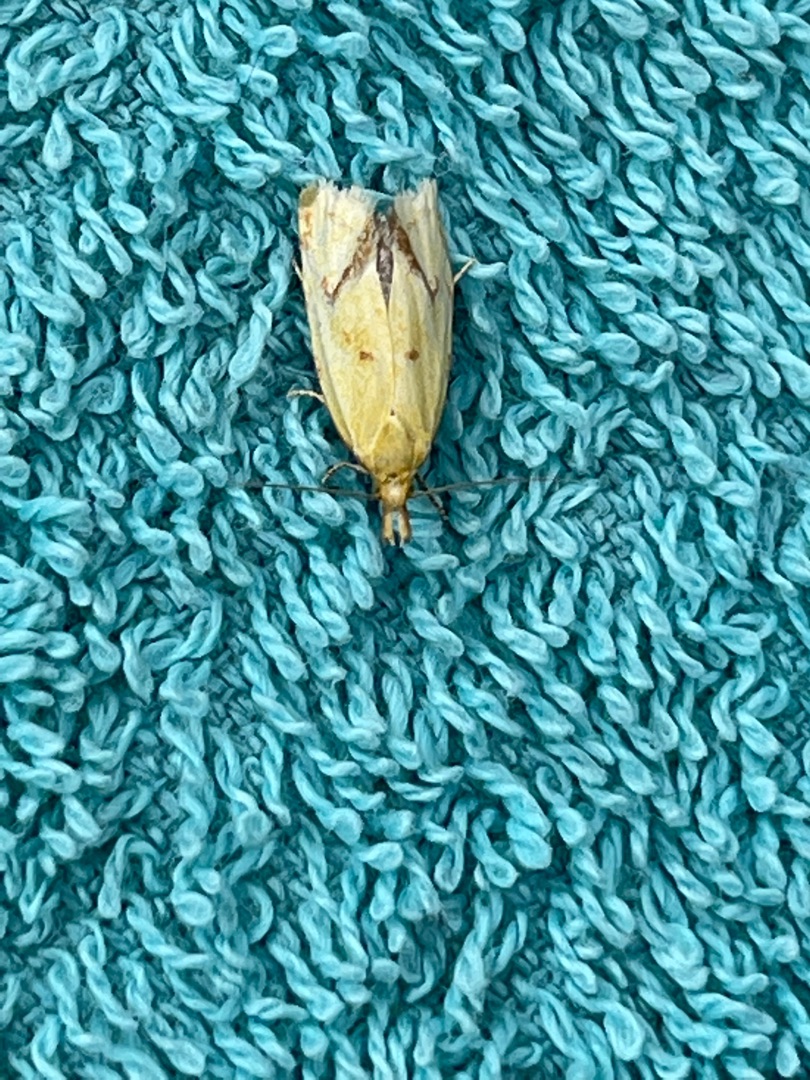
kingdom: Animalia
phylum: Arthropoda
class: Insecta
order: Lepidoptera
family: Tortricidae
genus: Agapeta
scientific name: Agapeta hamana
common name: Tidselgulvikler
